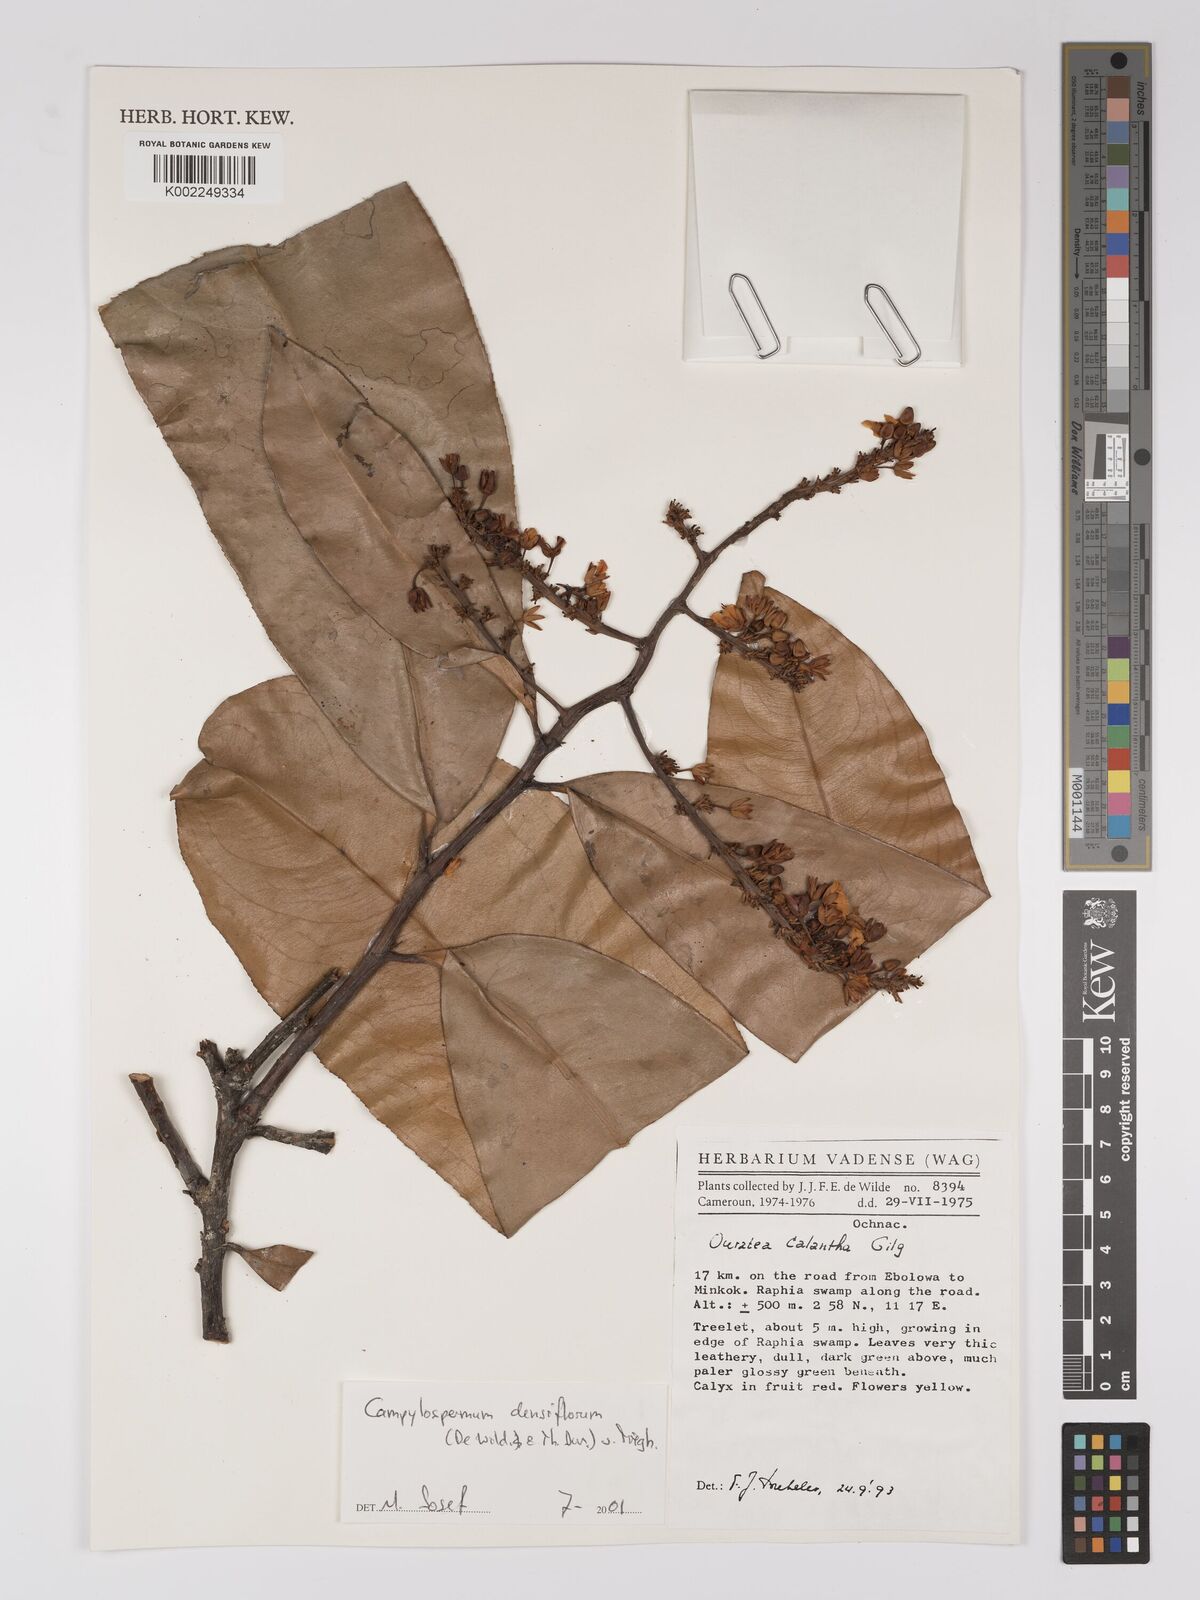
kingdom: Plantae
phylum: Tracheophyta
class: Magnoliopsida
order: Malpighiales
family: Ochnaceae
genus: Gomphia
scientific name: Gomphia densiflora
